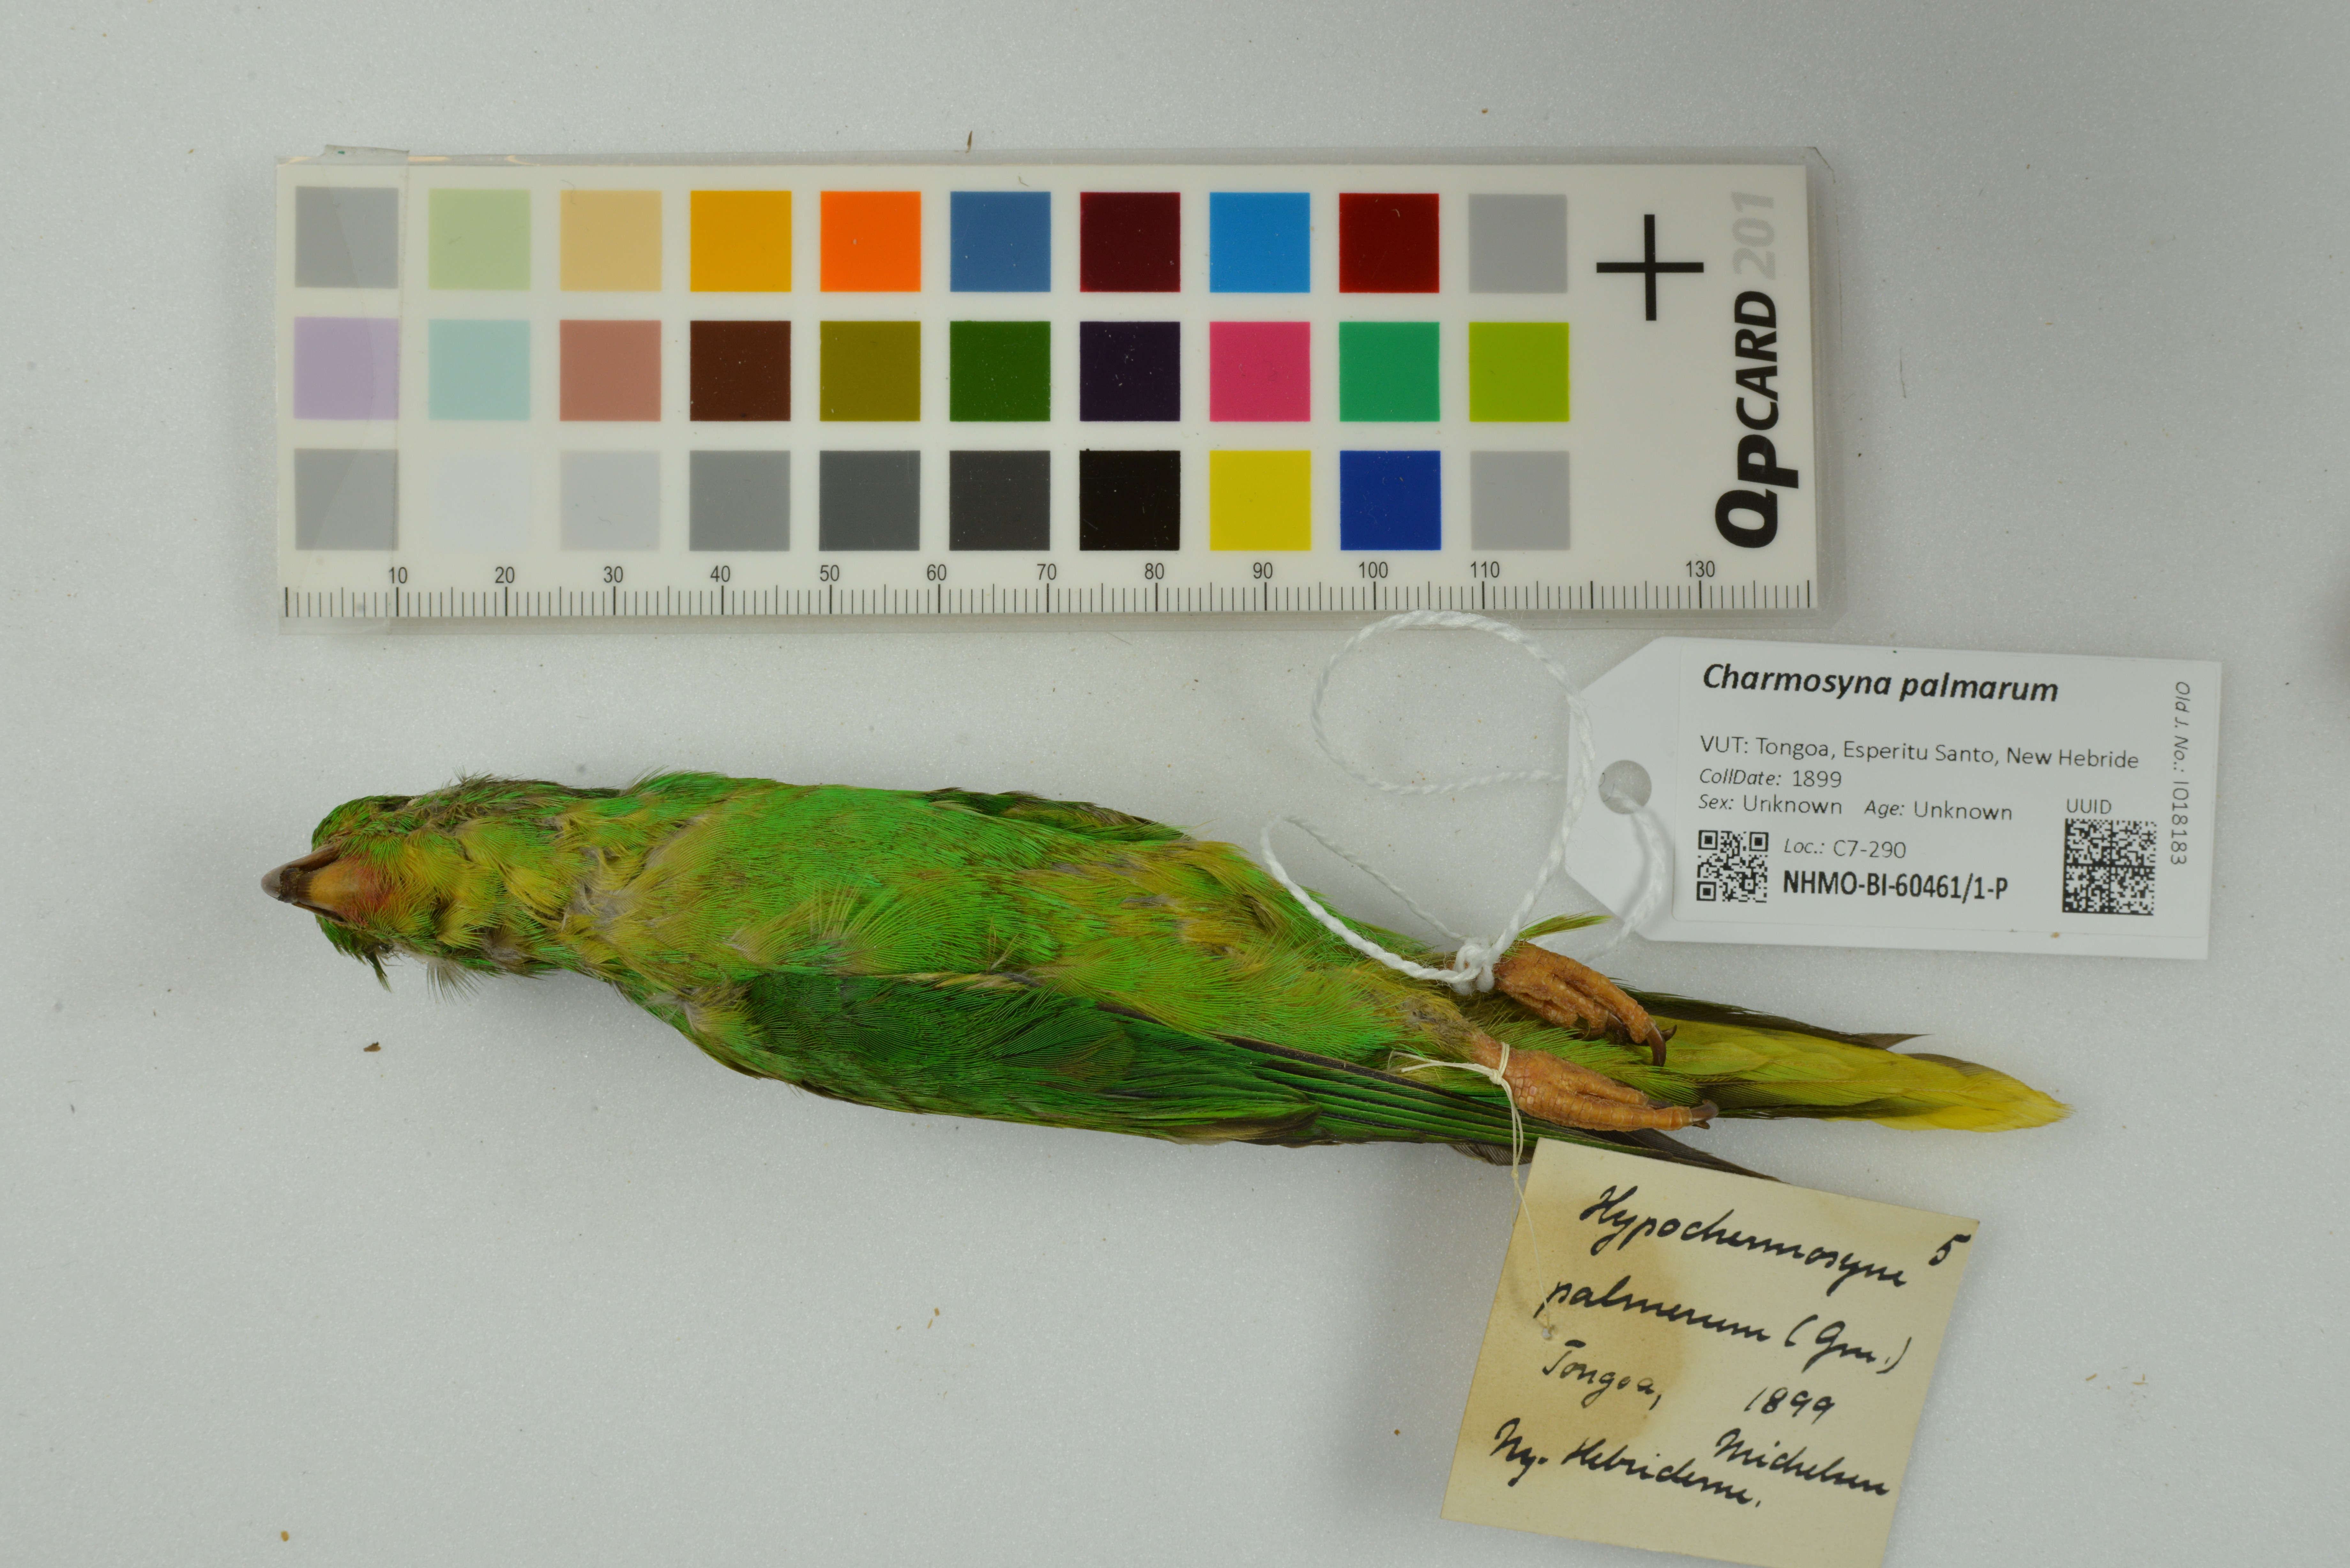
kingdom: Animalia
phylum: Chordata
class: Aves
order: Psittaciformes
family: Psittacidae
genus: Charmosyna
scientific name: Charmosyna palmarum
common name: Palm lorikeet
